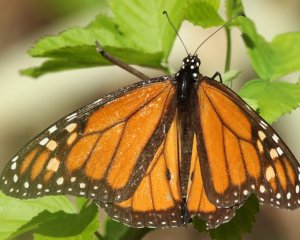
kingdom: Animalia
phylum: Arthropoda
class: Insecta
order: Lepidoptera
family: Nymphalidae
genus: Danaus
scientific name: Danaus plexippus
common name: Monarch
